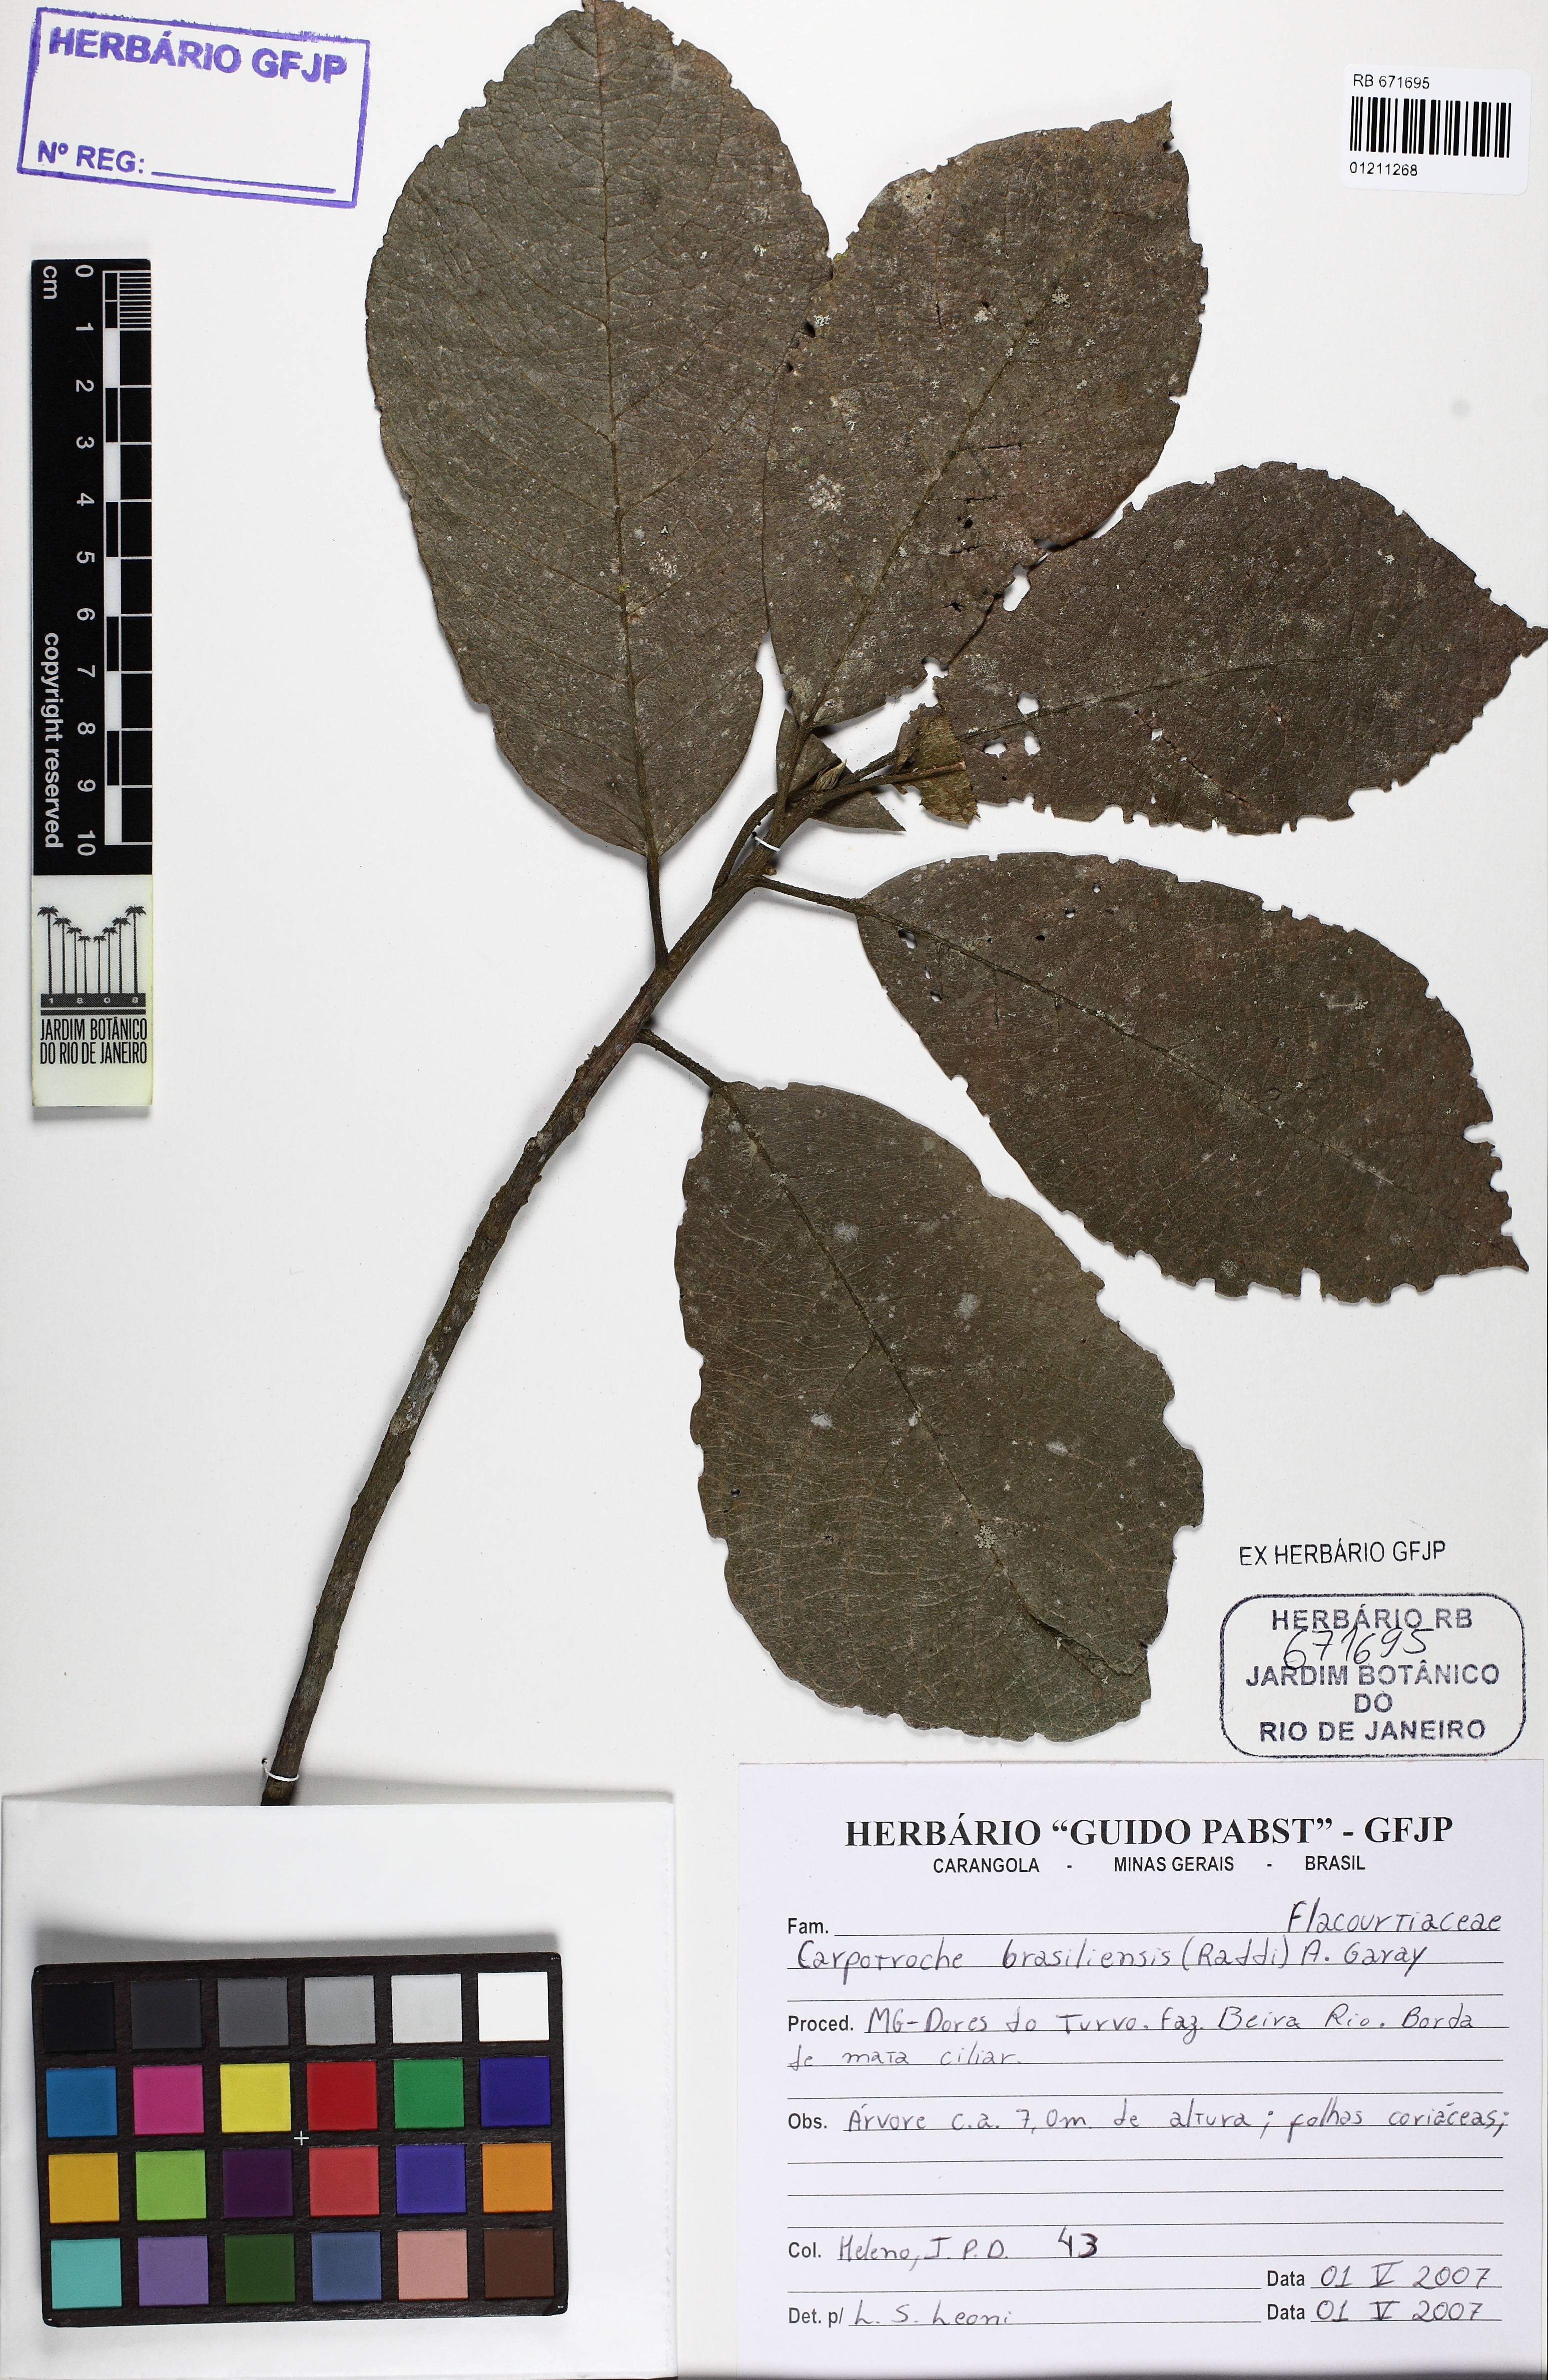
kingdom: Plantae
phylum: Tracheophyta
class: Magnoliopsida
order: Malpighiales
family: Achariaceae
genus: Carpotroche
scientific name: Carpotroche brasiliensis
